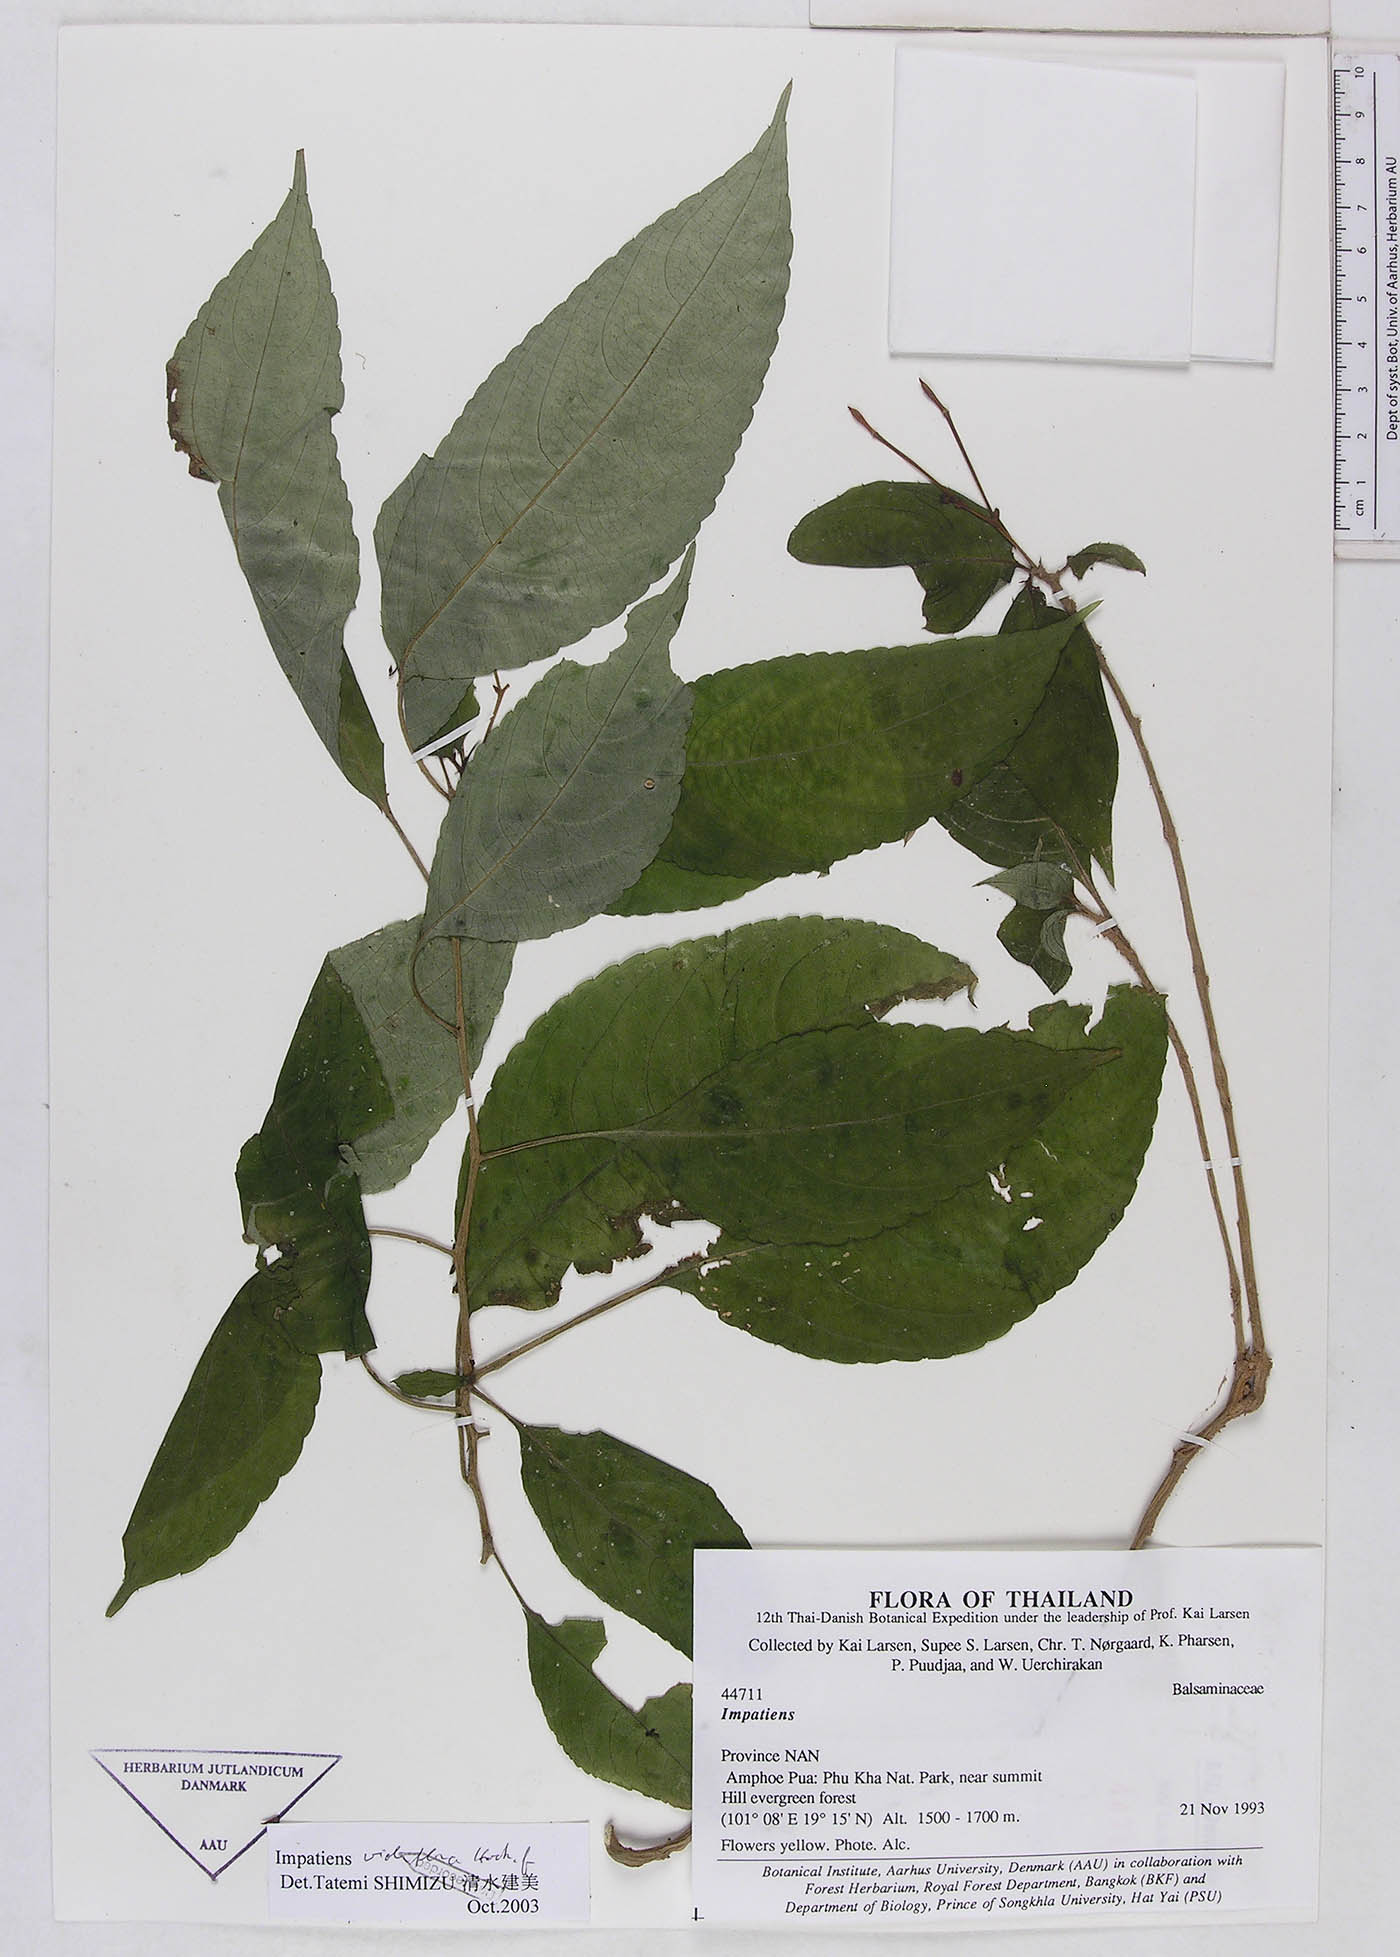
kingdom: Plantae
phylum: Tracheophyta
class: Magnoliopsida
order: Ericales
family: Balsaminaceae
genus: Impatiens
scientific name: Impatiens jurpia
